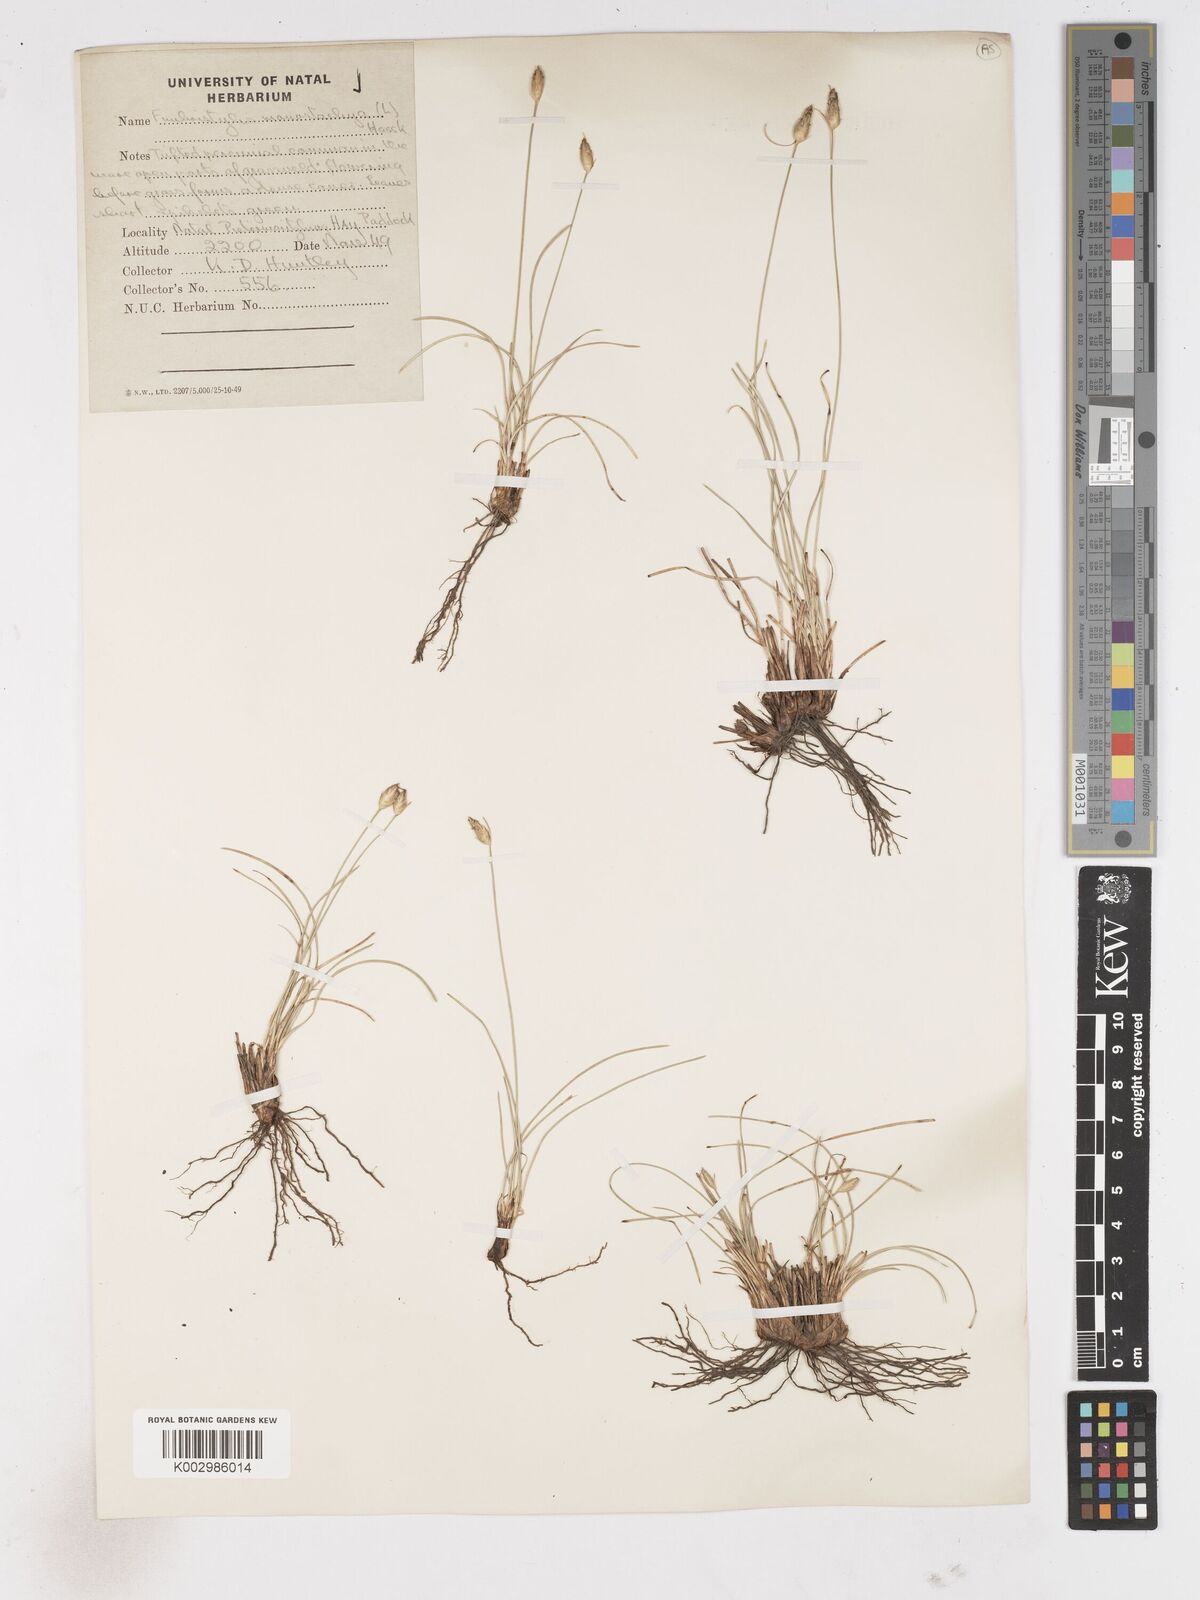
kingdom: Plantae
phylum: Tracheophyta
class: Liliopsida
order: Poales
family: Cyperaceae
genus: Abildgaardia
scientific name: Abildgaardia ovata
